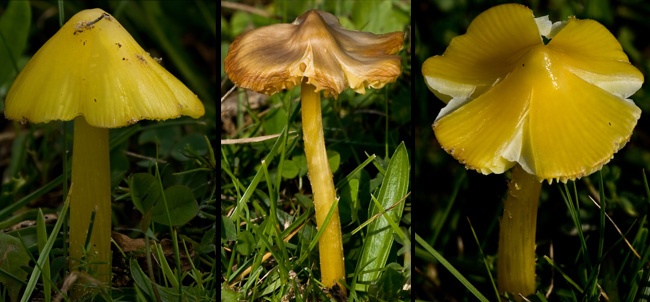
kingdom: Fungi
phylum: Basidiomycota
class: Agaricomycetes
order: Agaricales
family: Hygrophoraceae
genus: Hygrocybe
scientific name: Hygrocybe acutoconica
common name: spidspuklet vokshat
